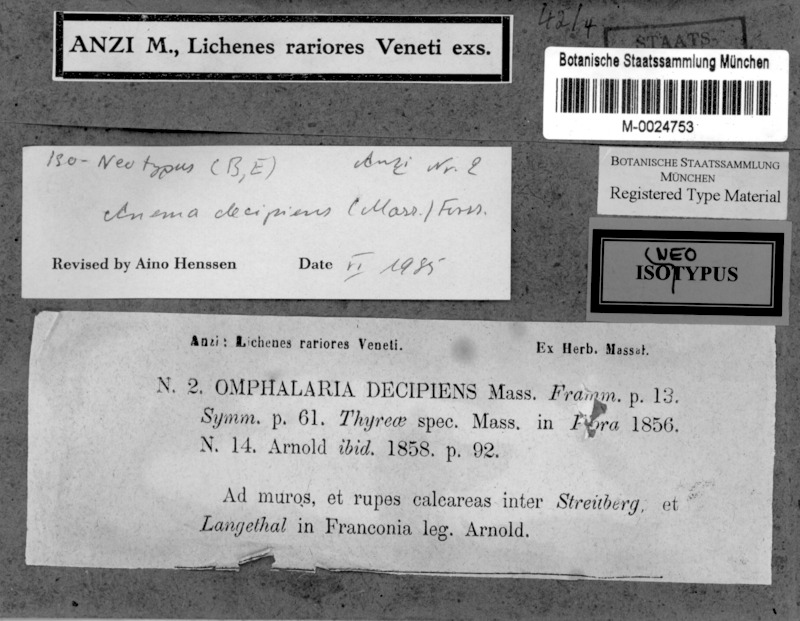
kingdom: Fungi
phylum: Ascomycota
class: Lichinomycetes
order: Lichinales
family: Lichinaceae
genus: Anema
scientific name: Anema decipiens
